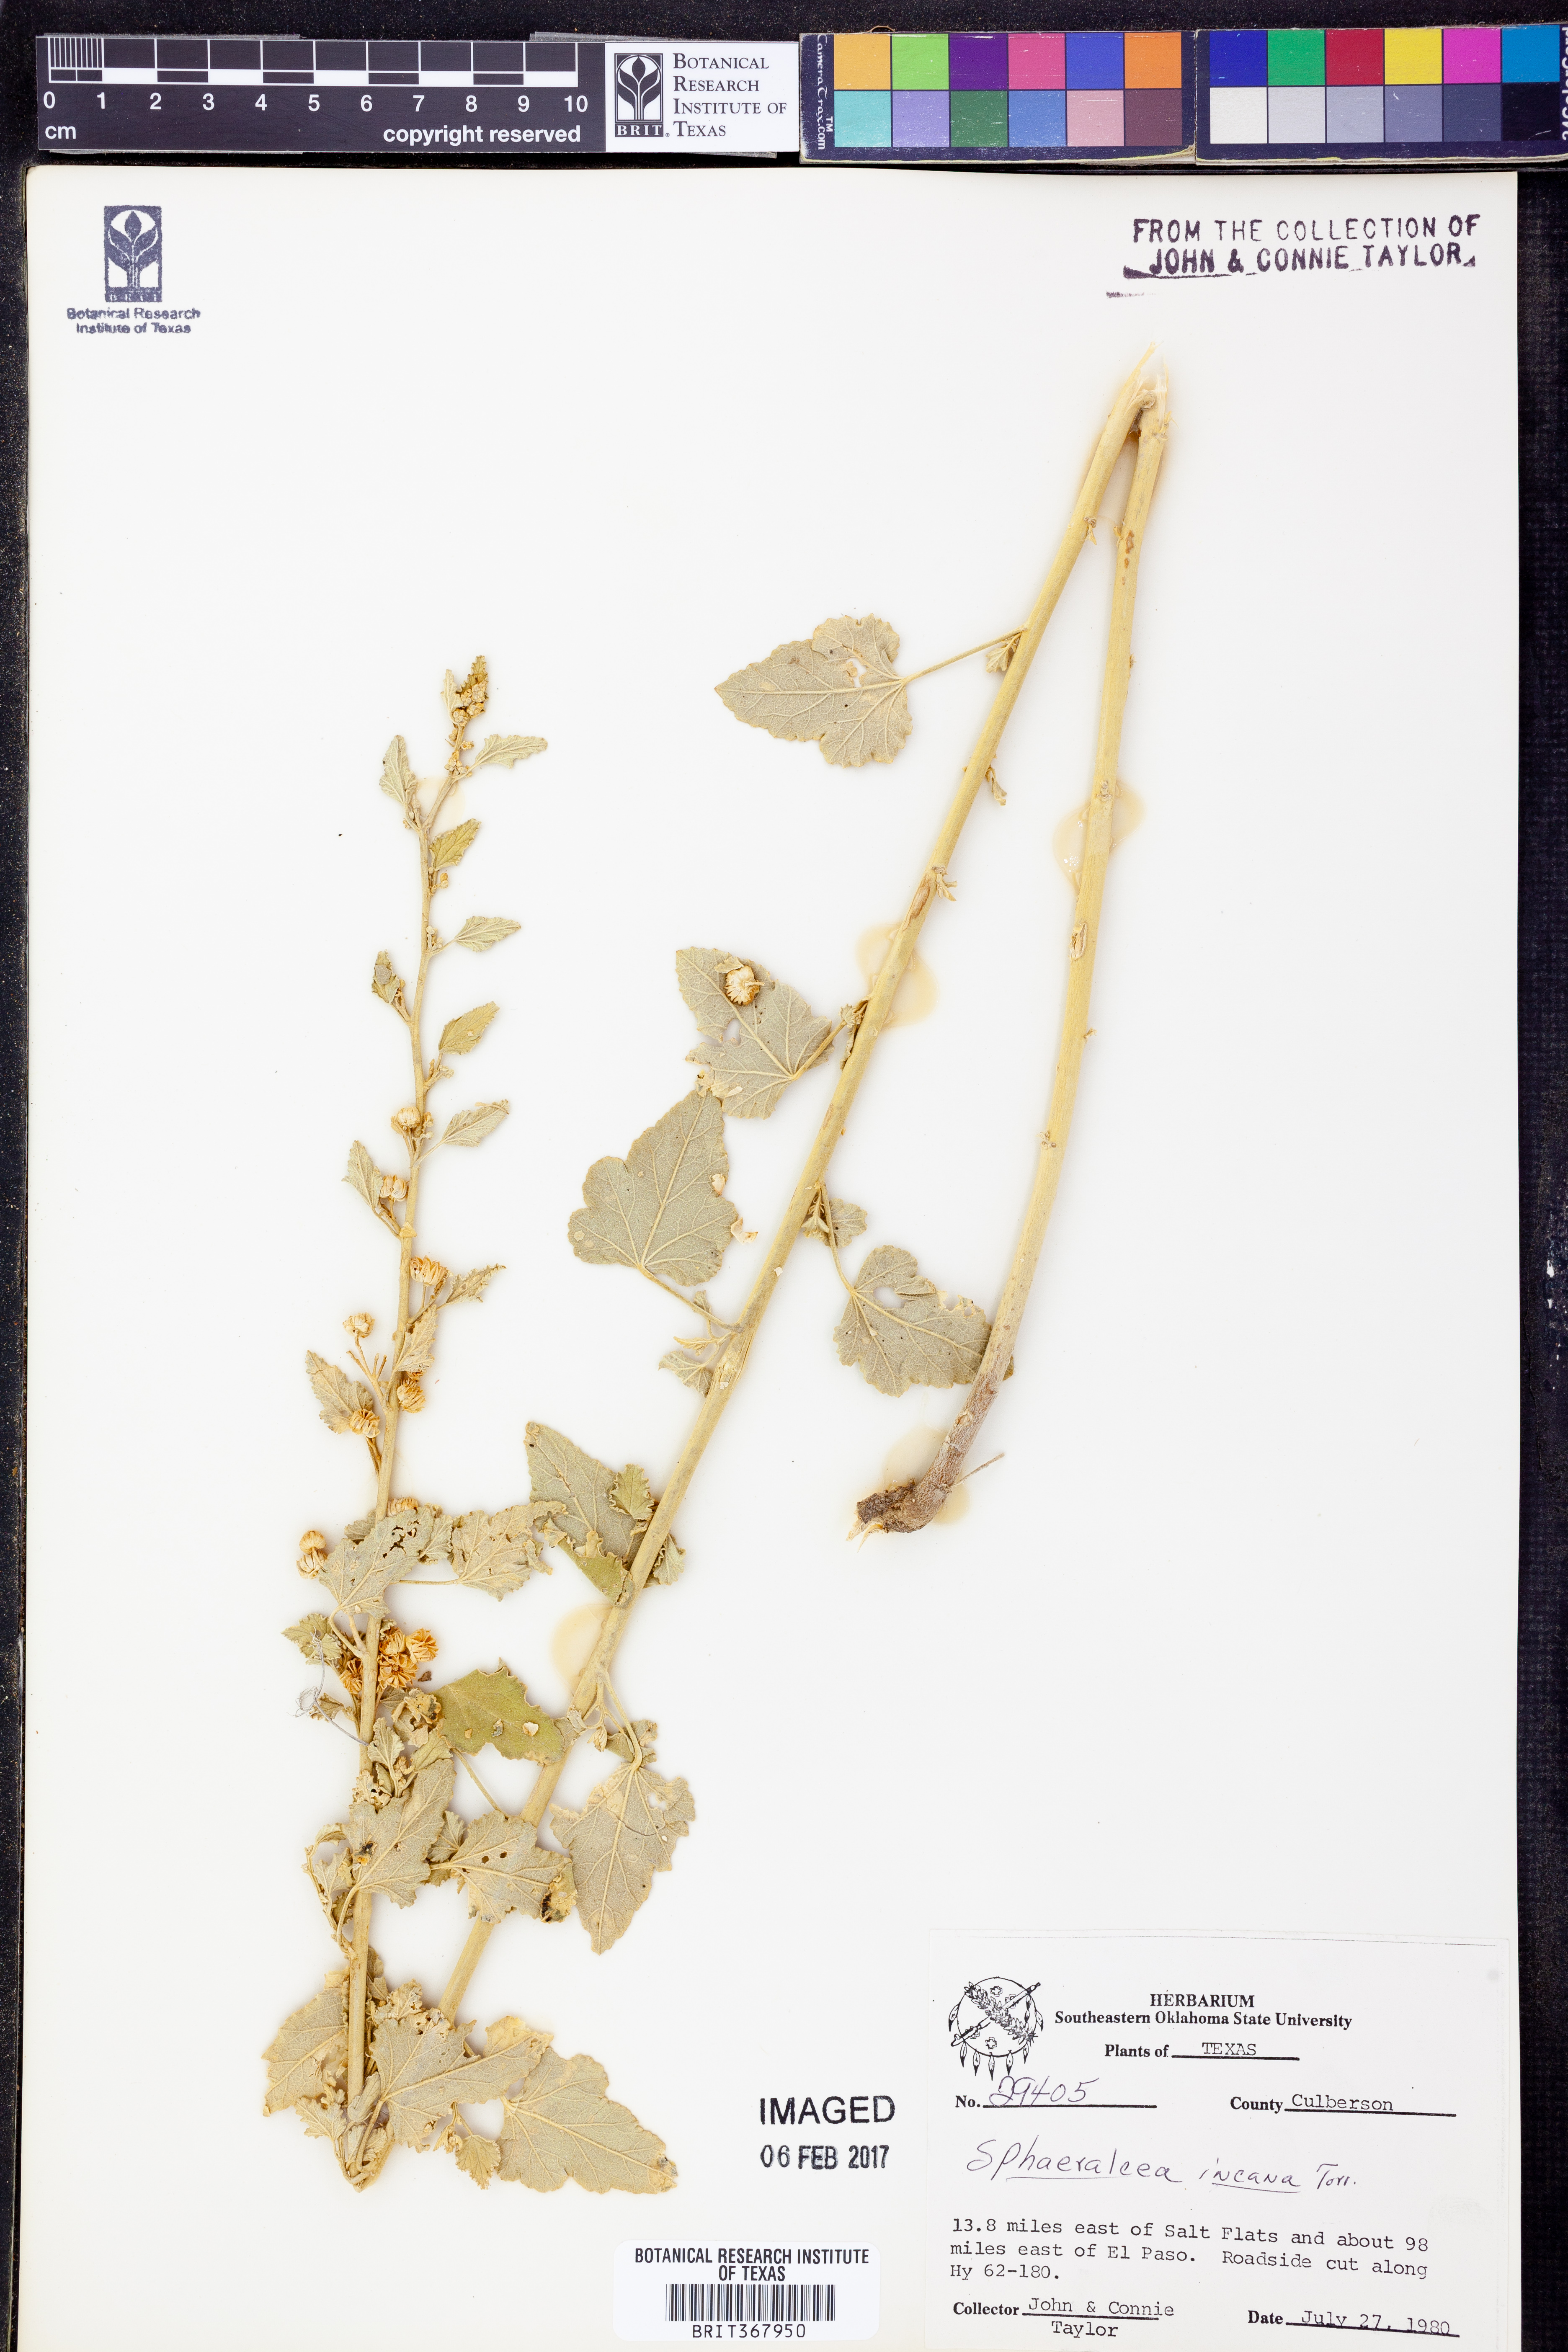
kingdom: Plantae
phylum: Tracheophyta
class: Magnoliopsida
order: Malvales
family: Malvaceae
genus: Sphaeralcea
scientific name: Sphaeralcea incana
